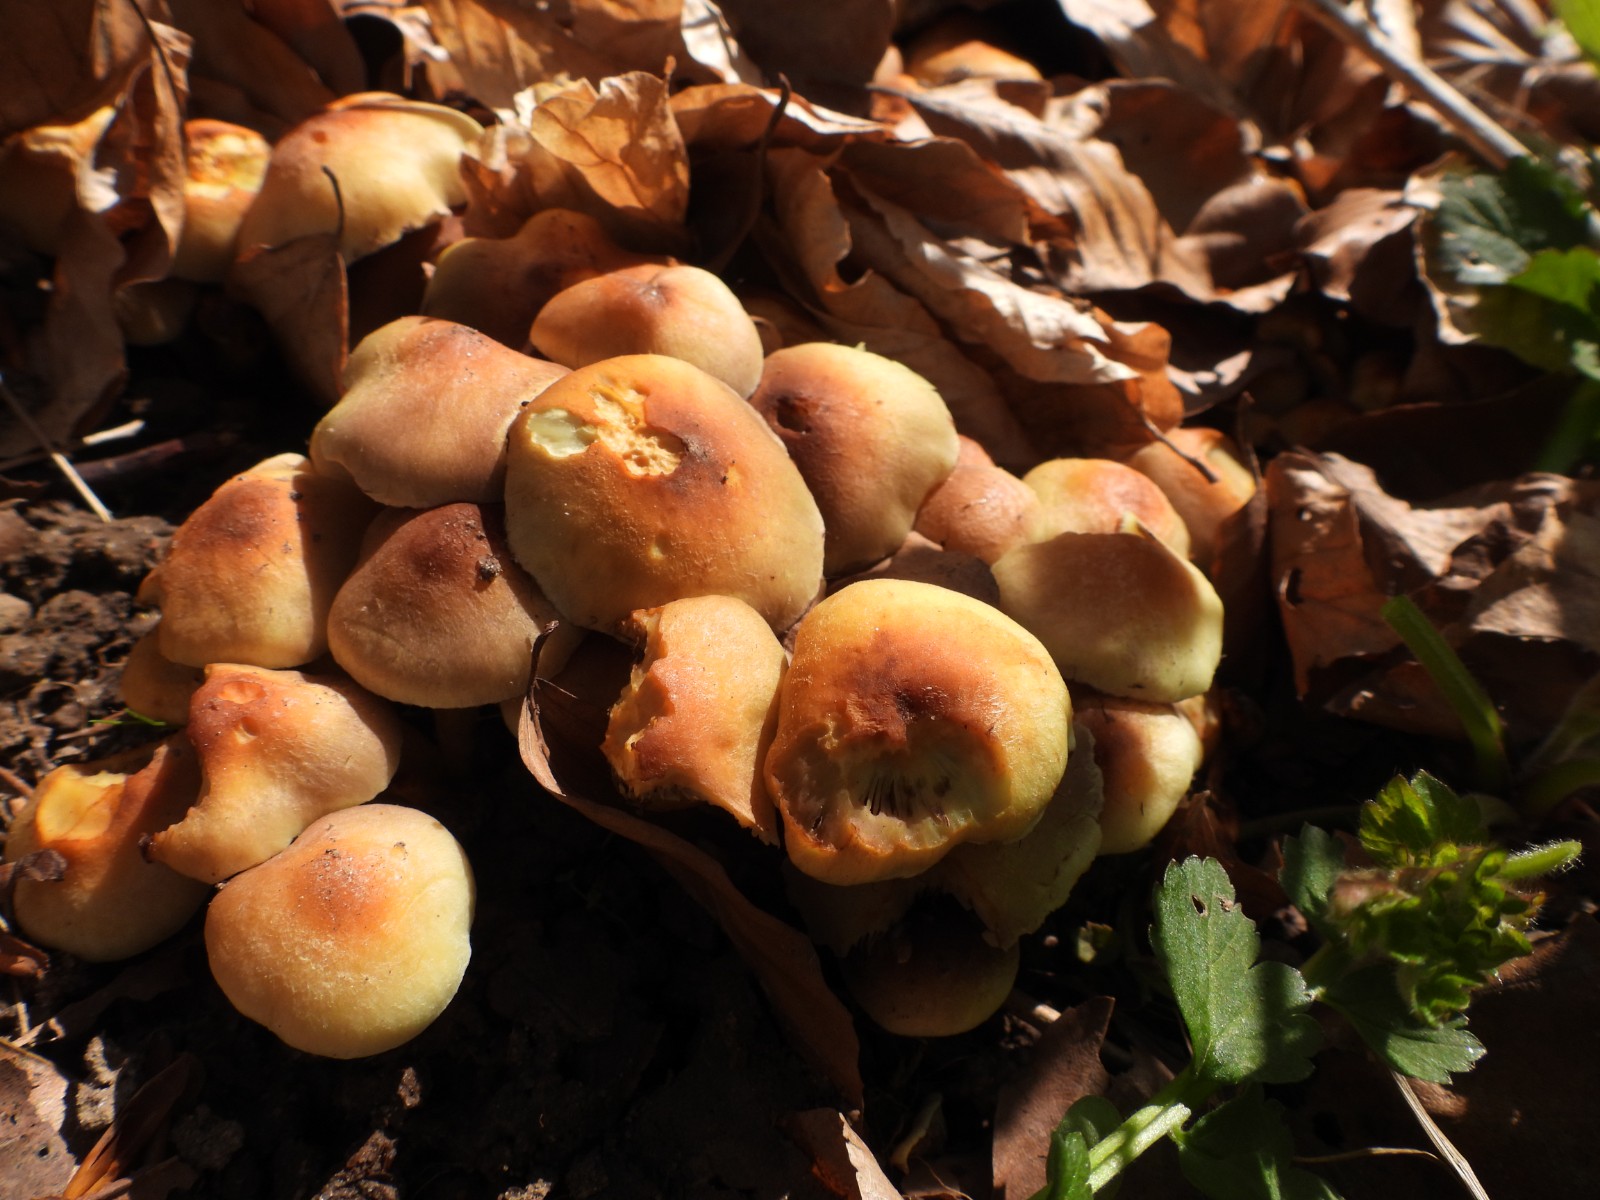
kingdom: Fungi
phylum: Basidiomycota
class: Agaricomycetes
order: Agaricales
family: Strophariaceae
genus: Hypholoma
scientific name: Hypholoma fasciculare
